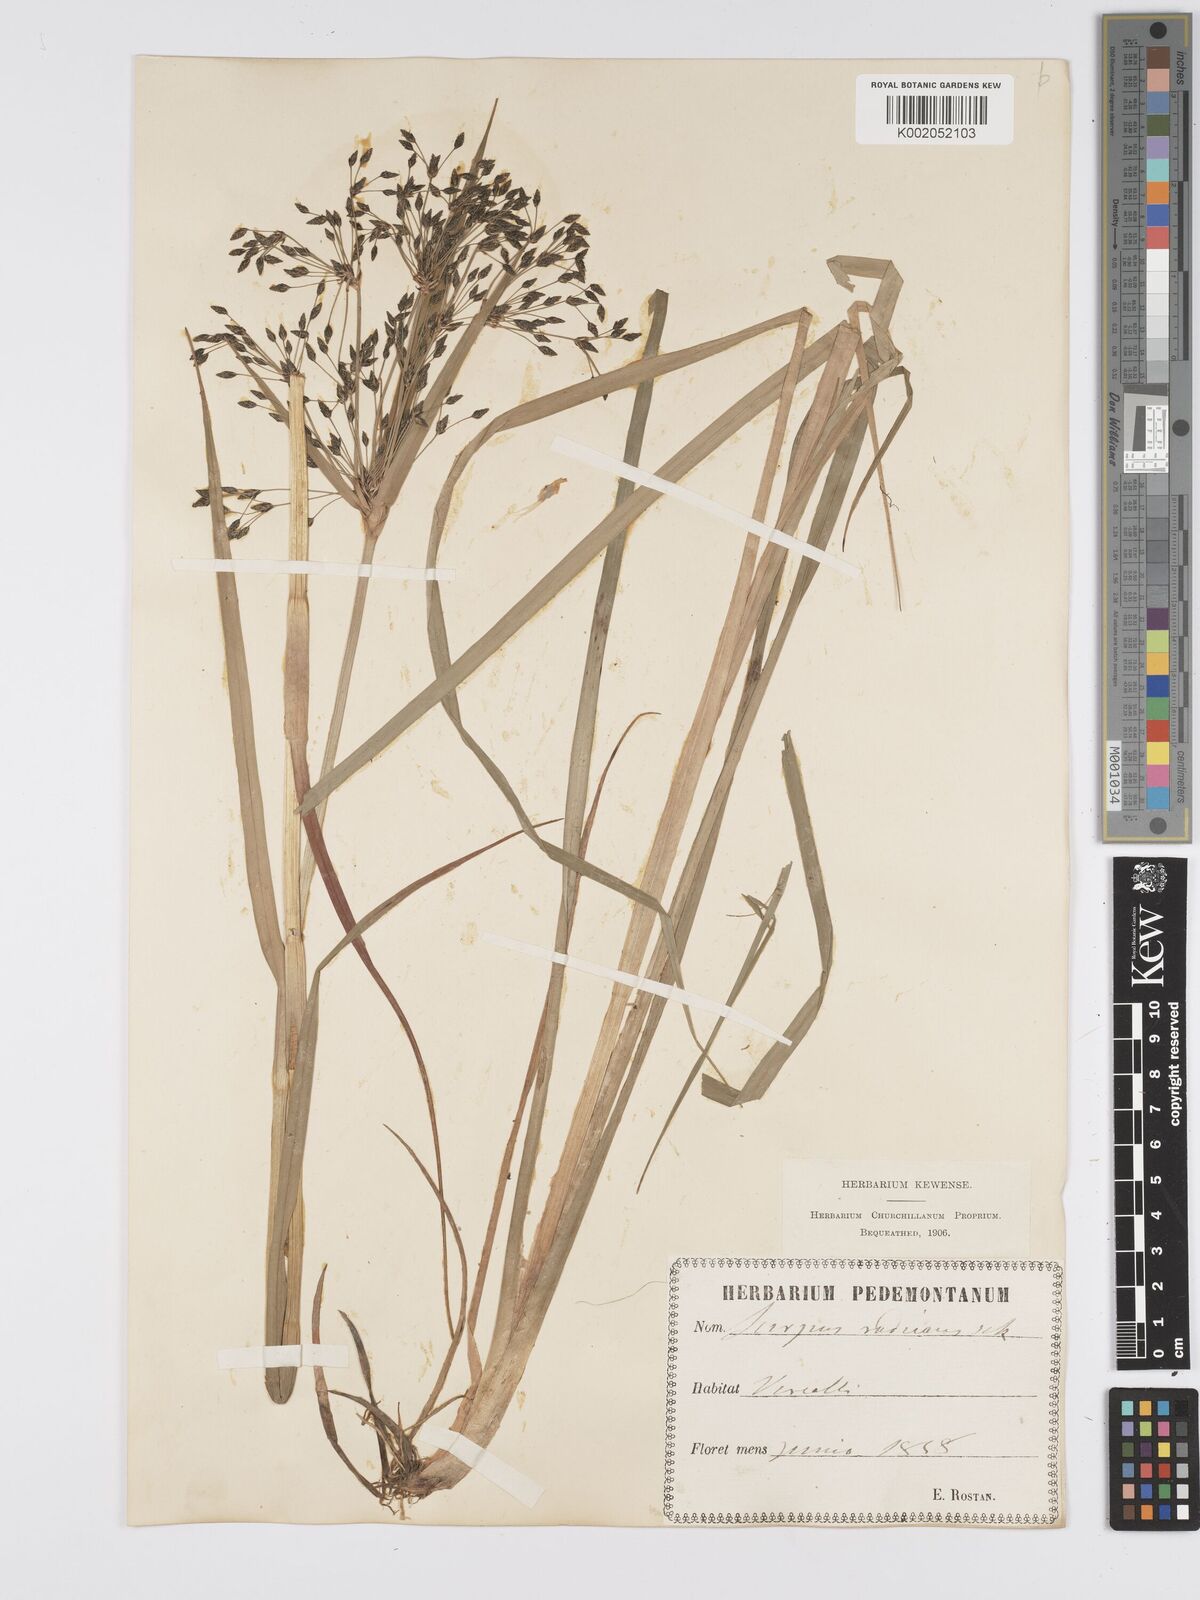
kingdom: Plantae
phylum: Tracheophyta
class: Liliopsida
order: Poales
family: Cyperaceae
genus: Scirpus
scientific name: Scirpus radicans
